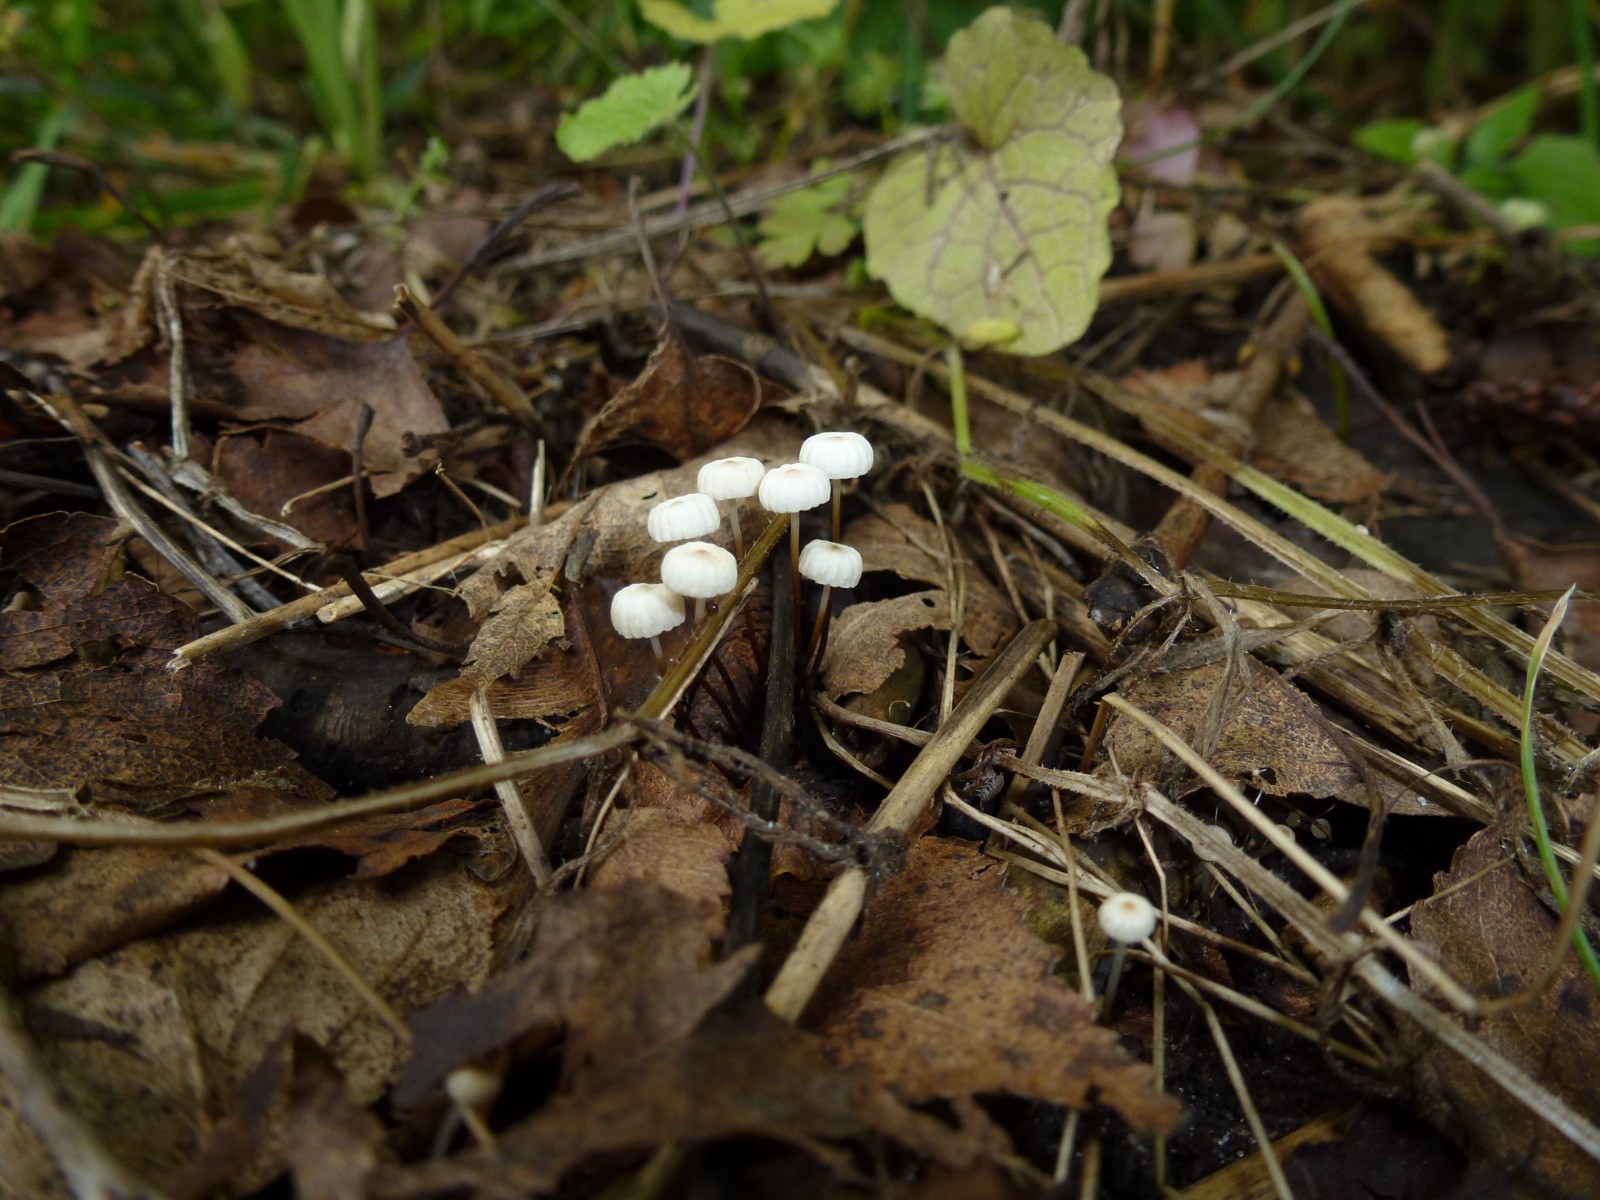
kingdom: Fungi
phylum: Basidiomycota
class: Agaricomycetes
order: Agaricales
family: Marasmiaceae
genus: Marasmius
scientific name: Marasmius rotula
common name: hjul-bruskhat
